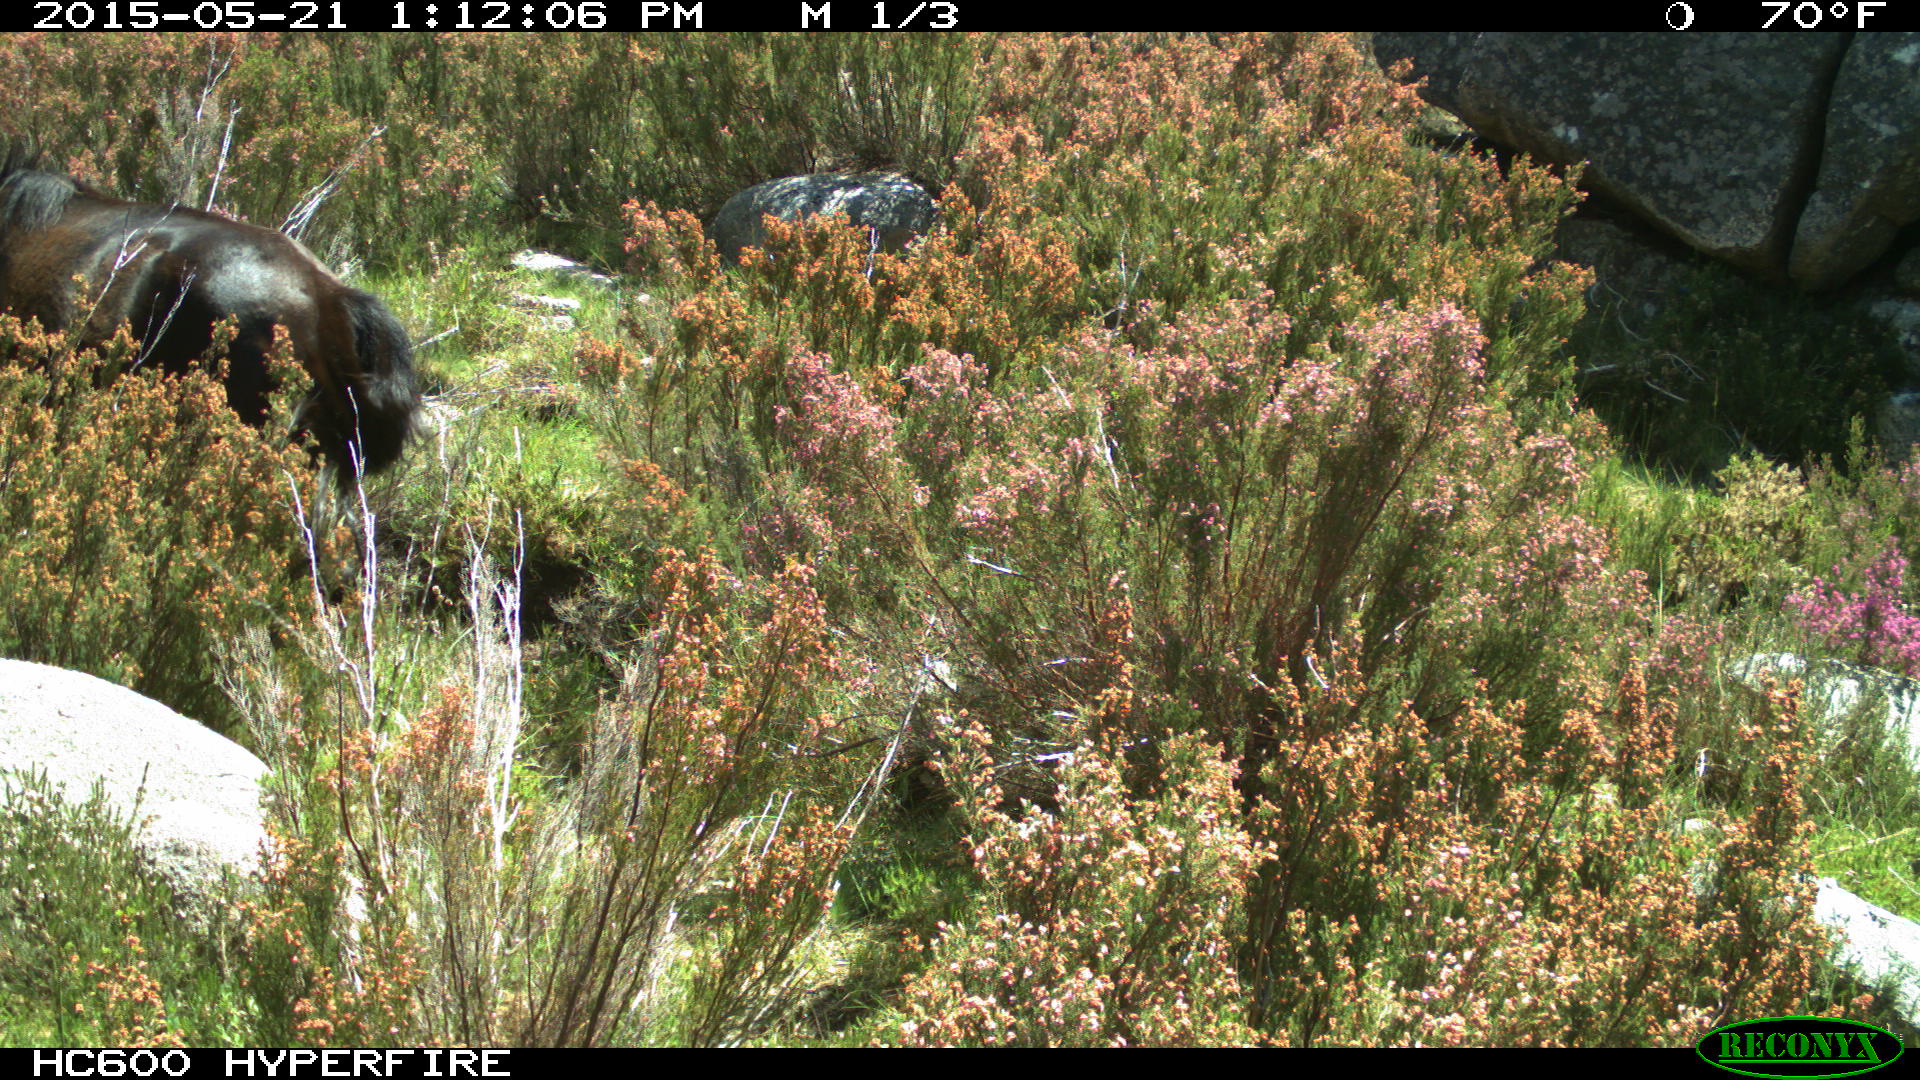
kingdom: Animalia
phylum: Chordata
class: Mammalia
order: Perissodactyla
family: Equidae
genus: Equus
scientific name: Equus caballus
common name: Horse
